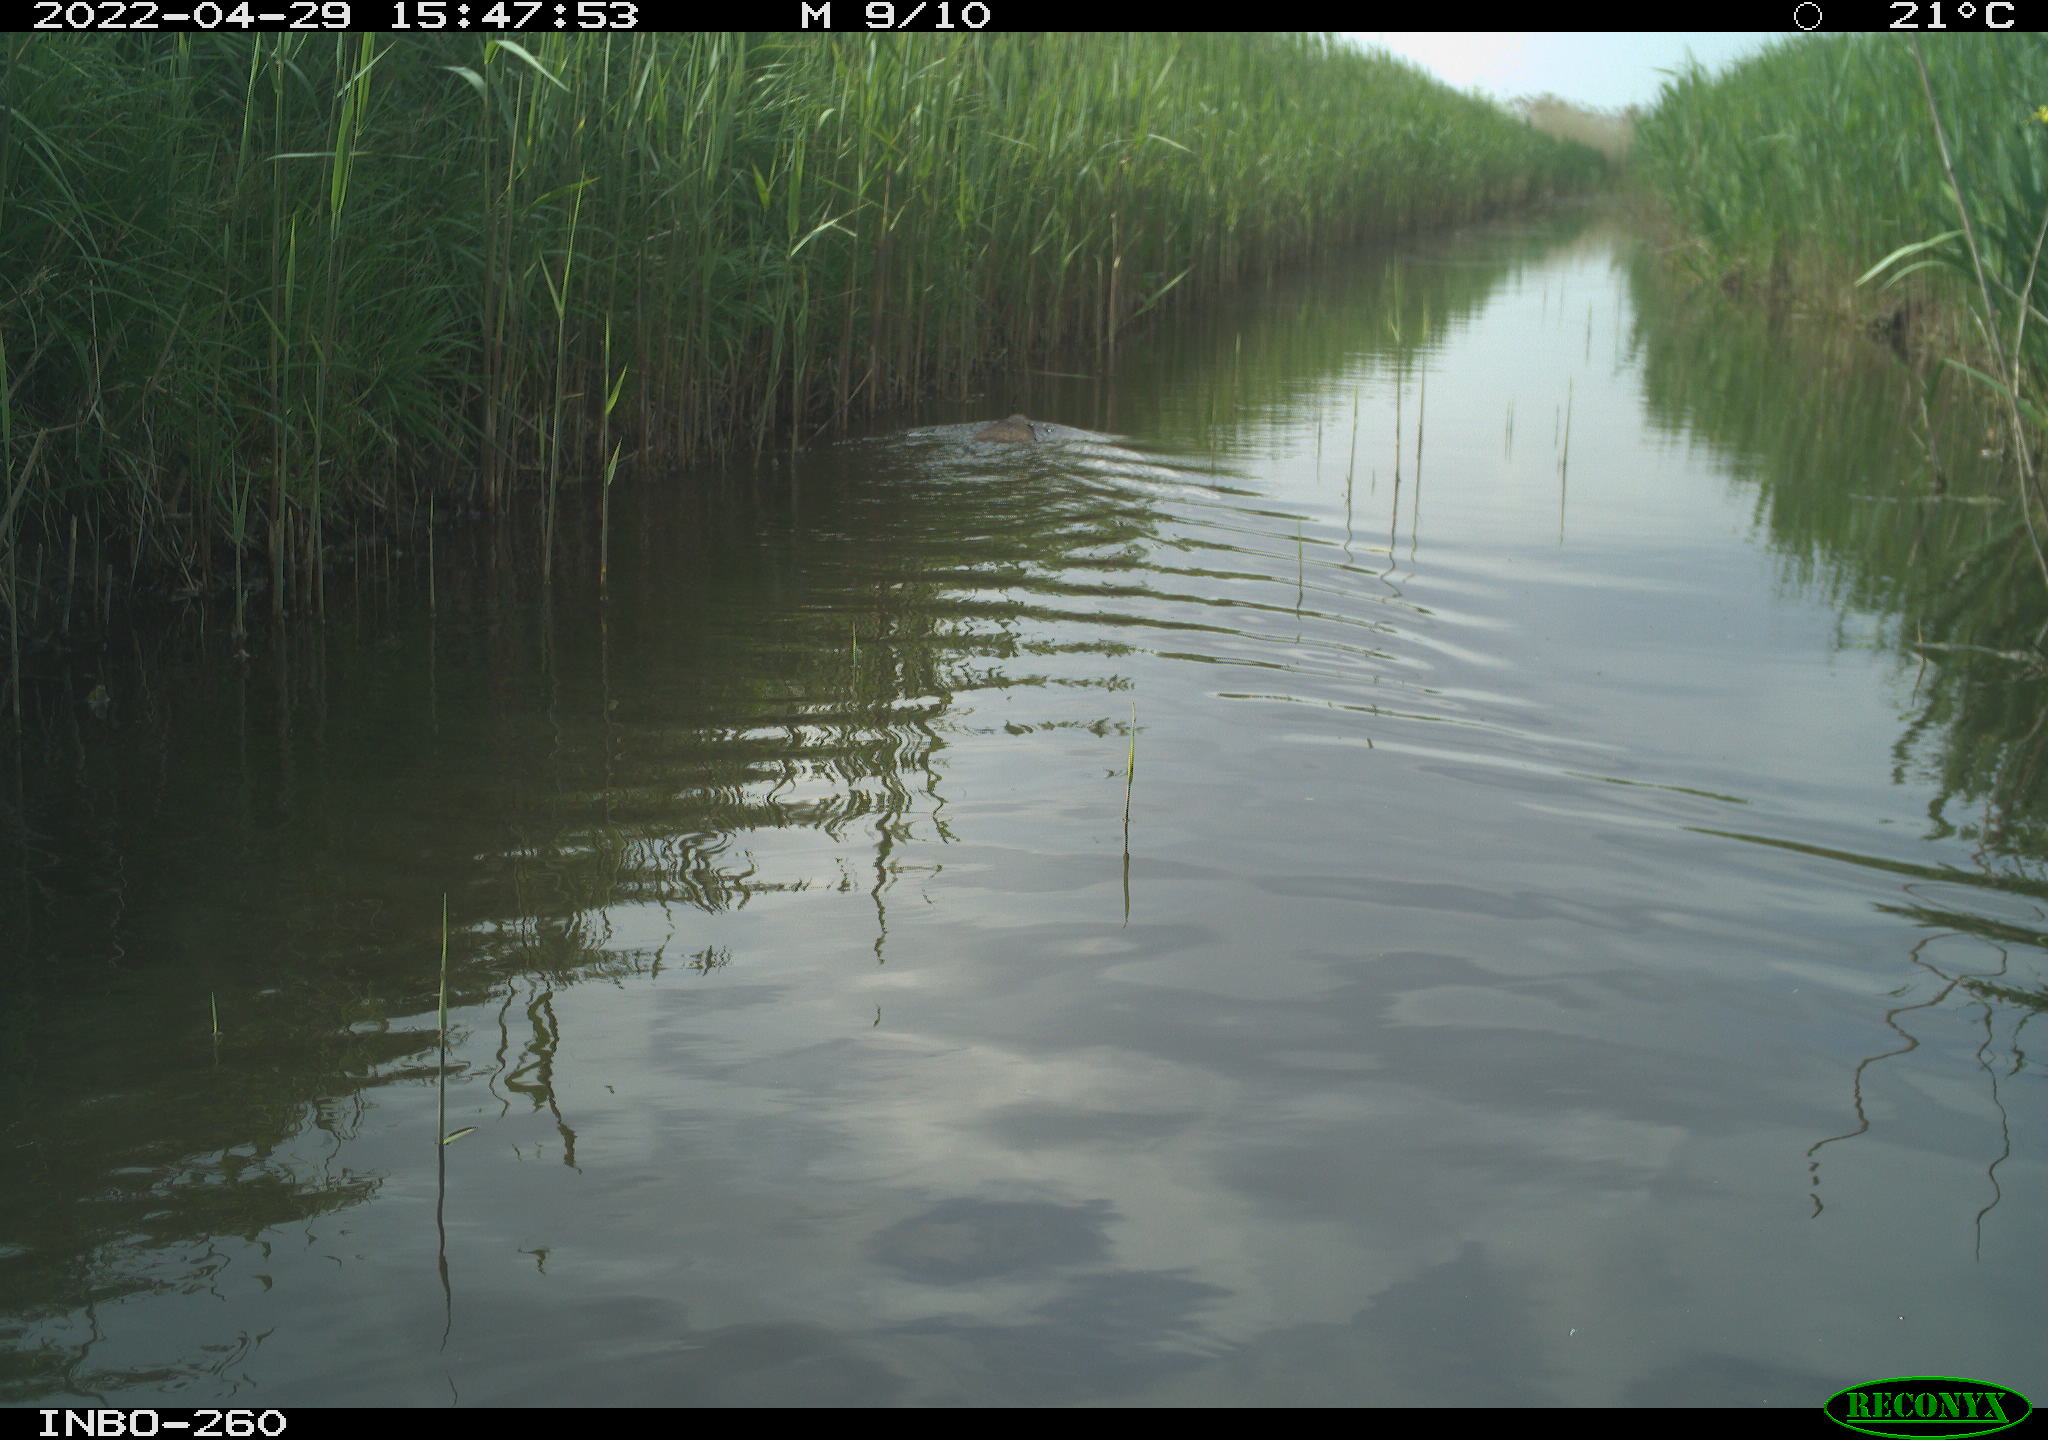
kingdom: Animalia
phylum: Chordata
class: Mammalia
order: Rodentia
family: Castoridae
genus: Castor
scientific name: Castor fiber
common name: Eurasian beaver
